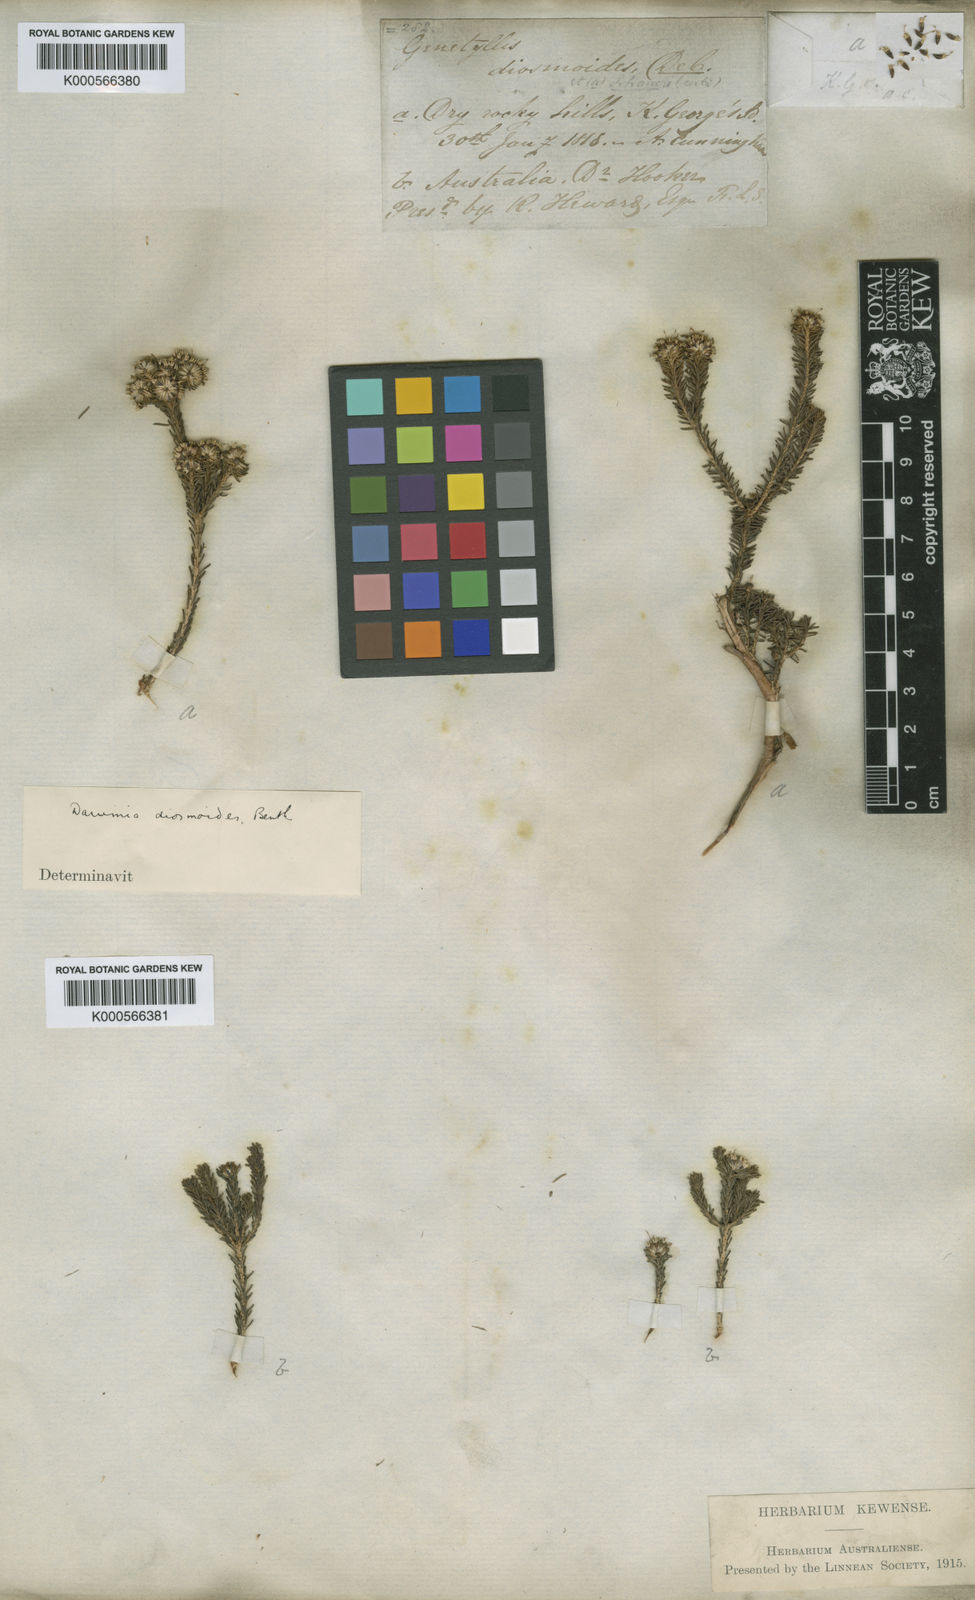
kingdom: Plantae
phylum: Tracheophyta
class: Magnoliopsida
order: Myrtales
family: Myrtaceae
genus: Darwinia
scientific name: Darwinia diosmoides
